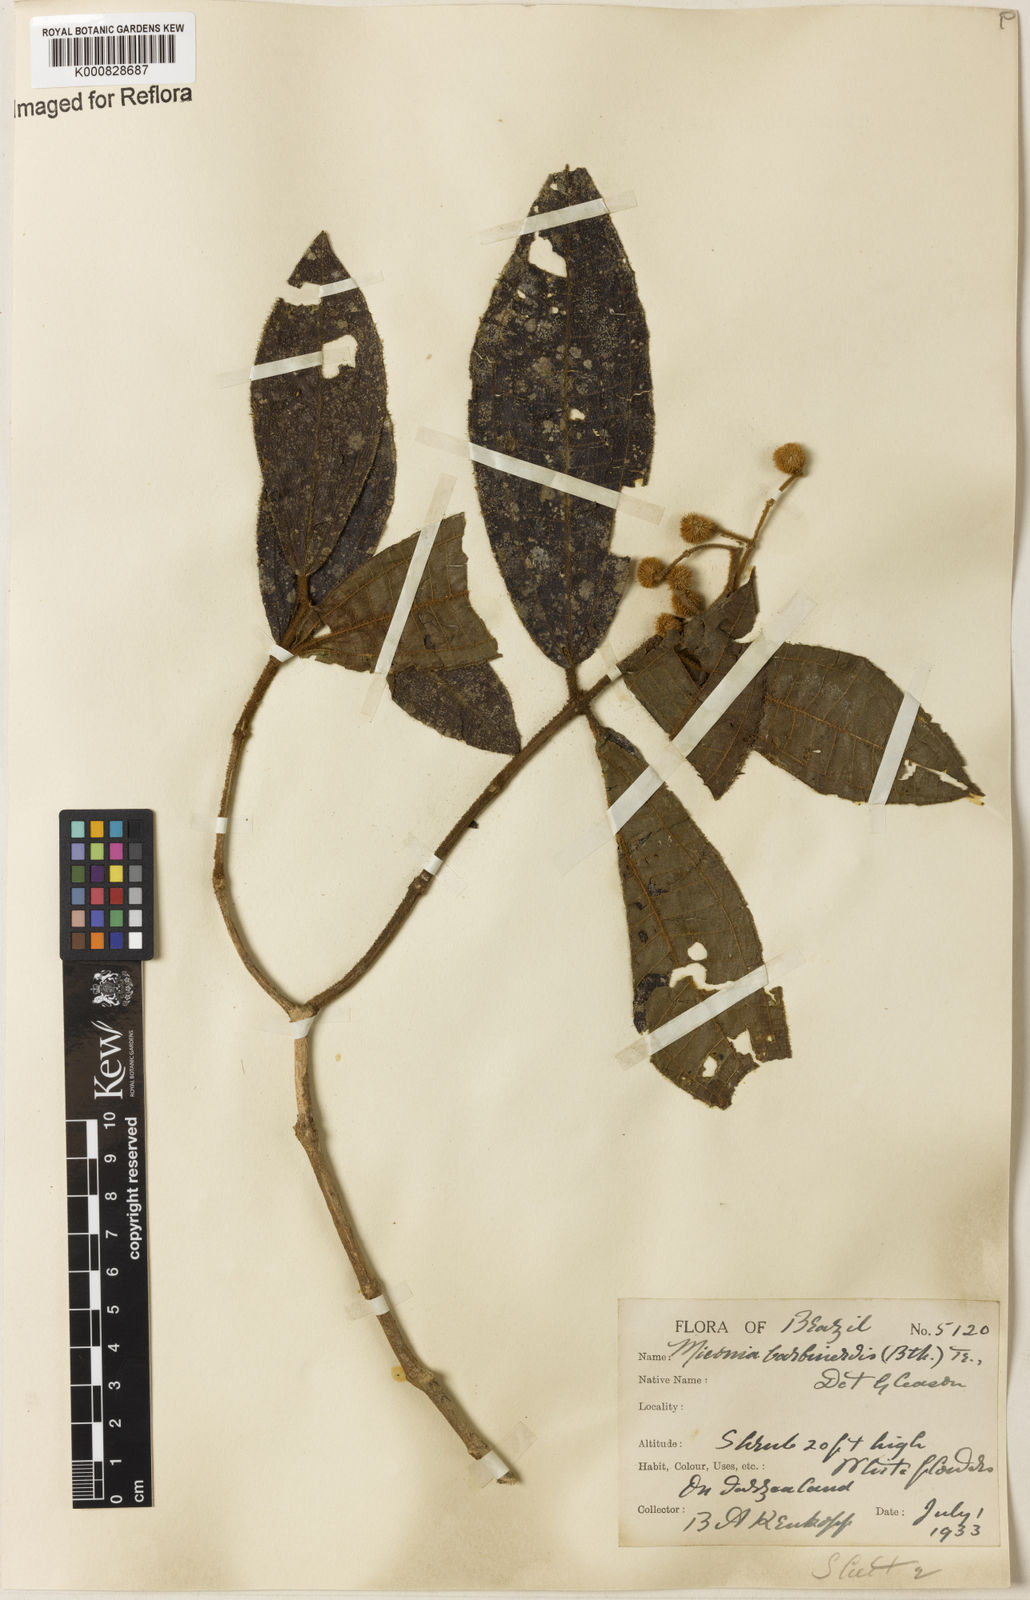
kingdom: Plantae
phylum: Tracheophyta
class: Magnoliopsida
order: Myrtales
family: Melastomataceae
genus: Miconia
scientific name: Miconia barbinervis
